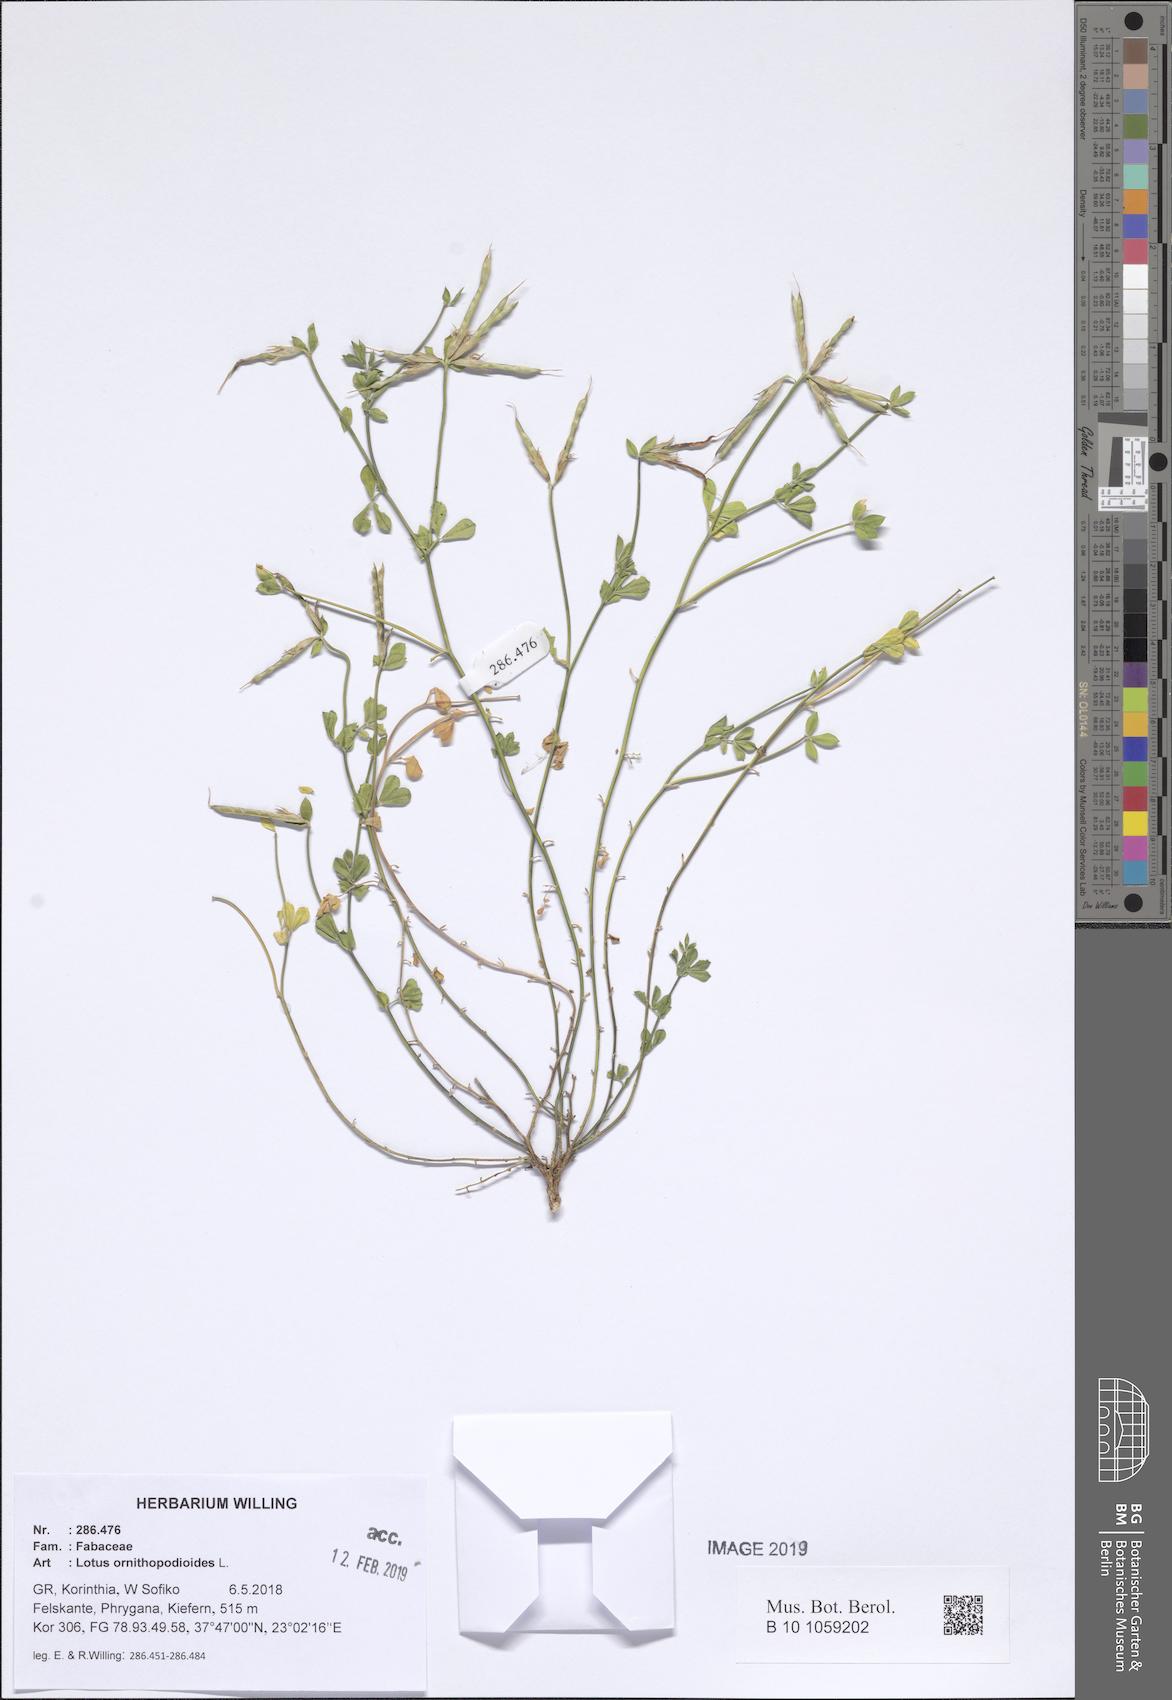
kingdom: Plantae
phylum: Tracheophyta
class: Magnoliopsida
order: Fabales
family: Fabaceae
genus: Lotus
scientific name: Lotus ornithopodioides
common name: Southern bird's-foot trefoil
